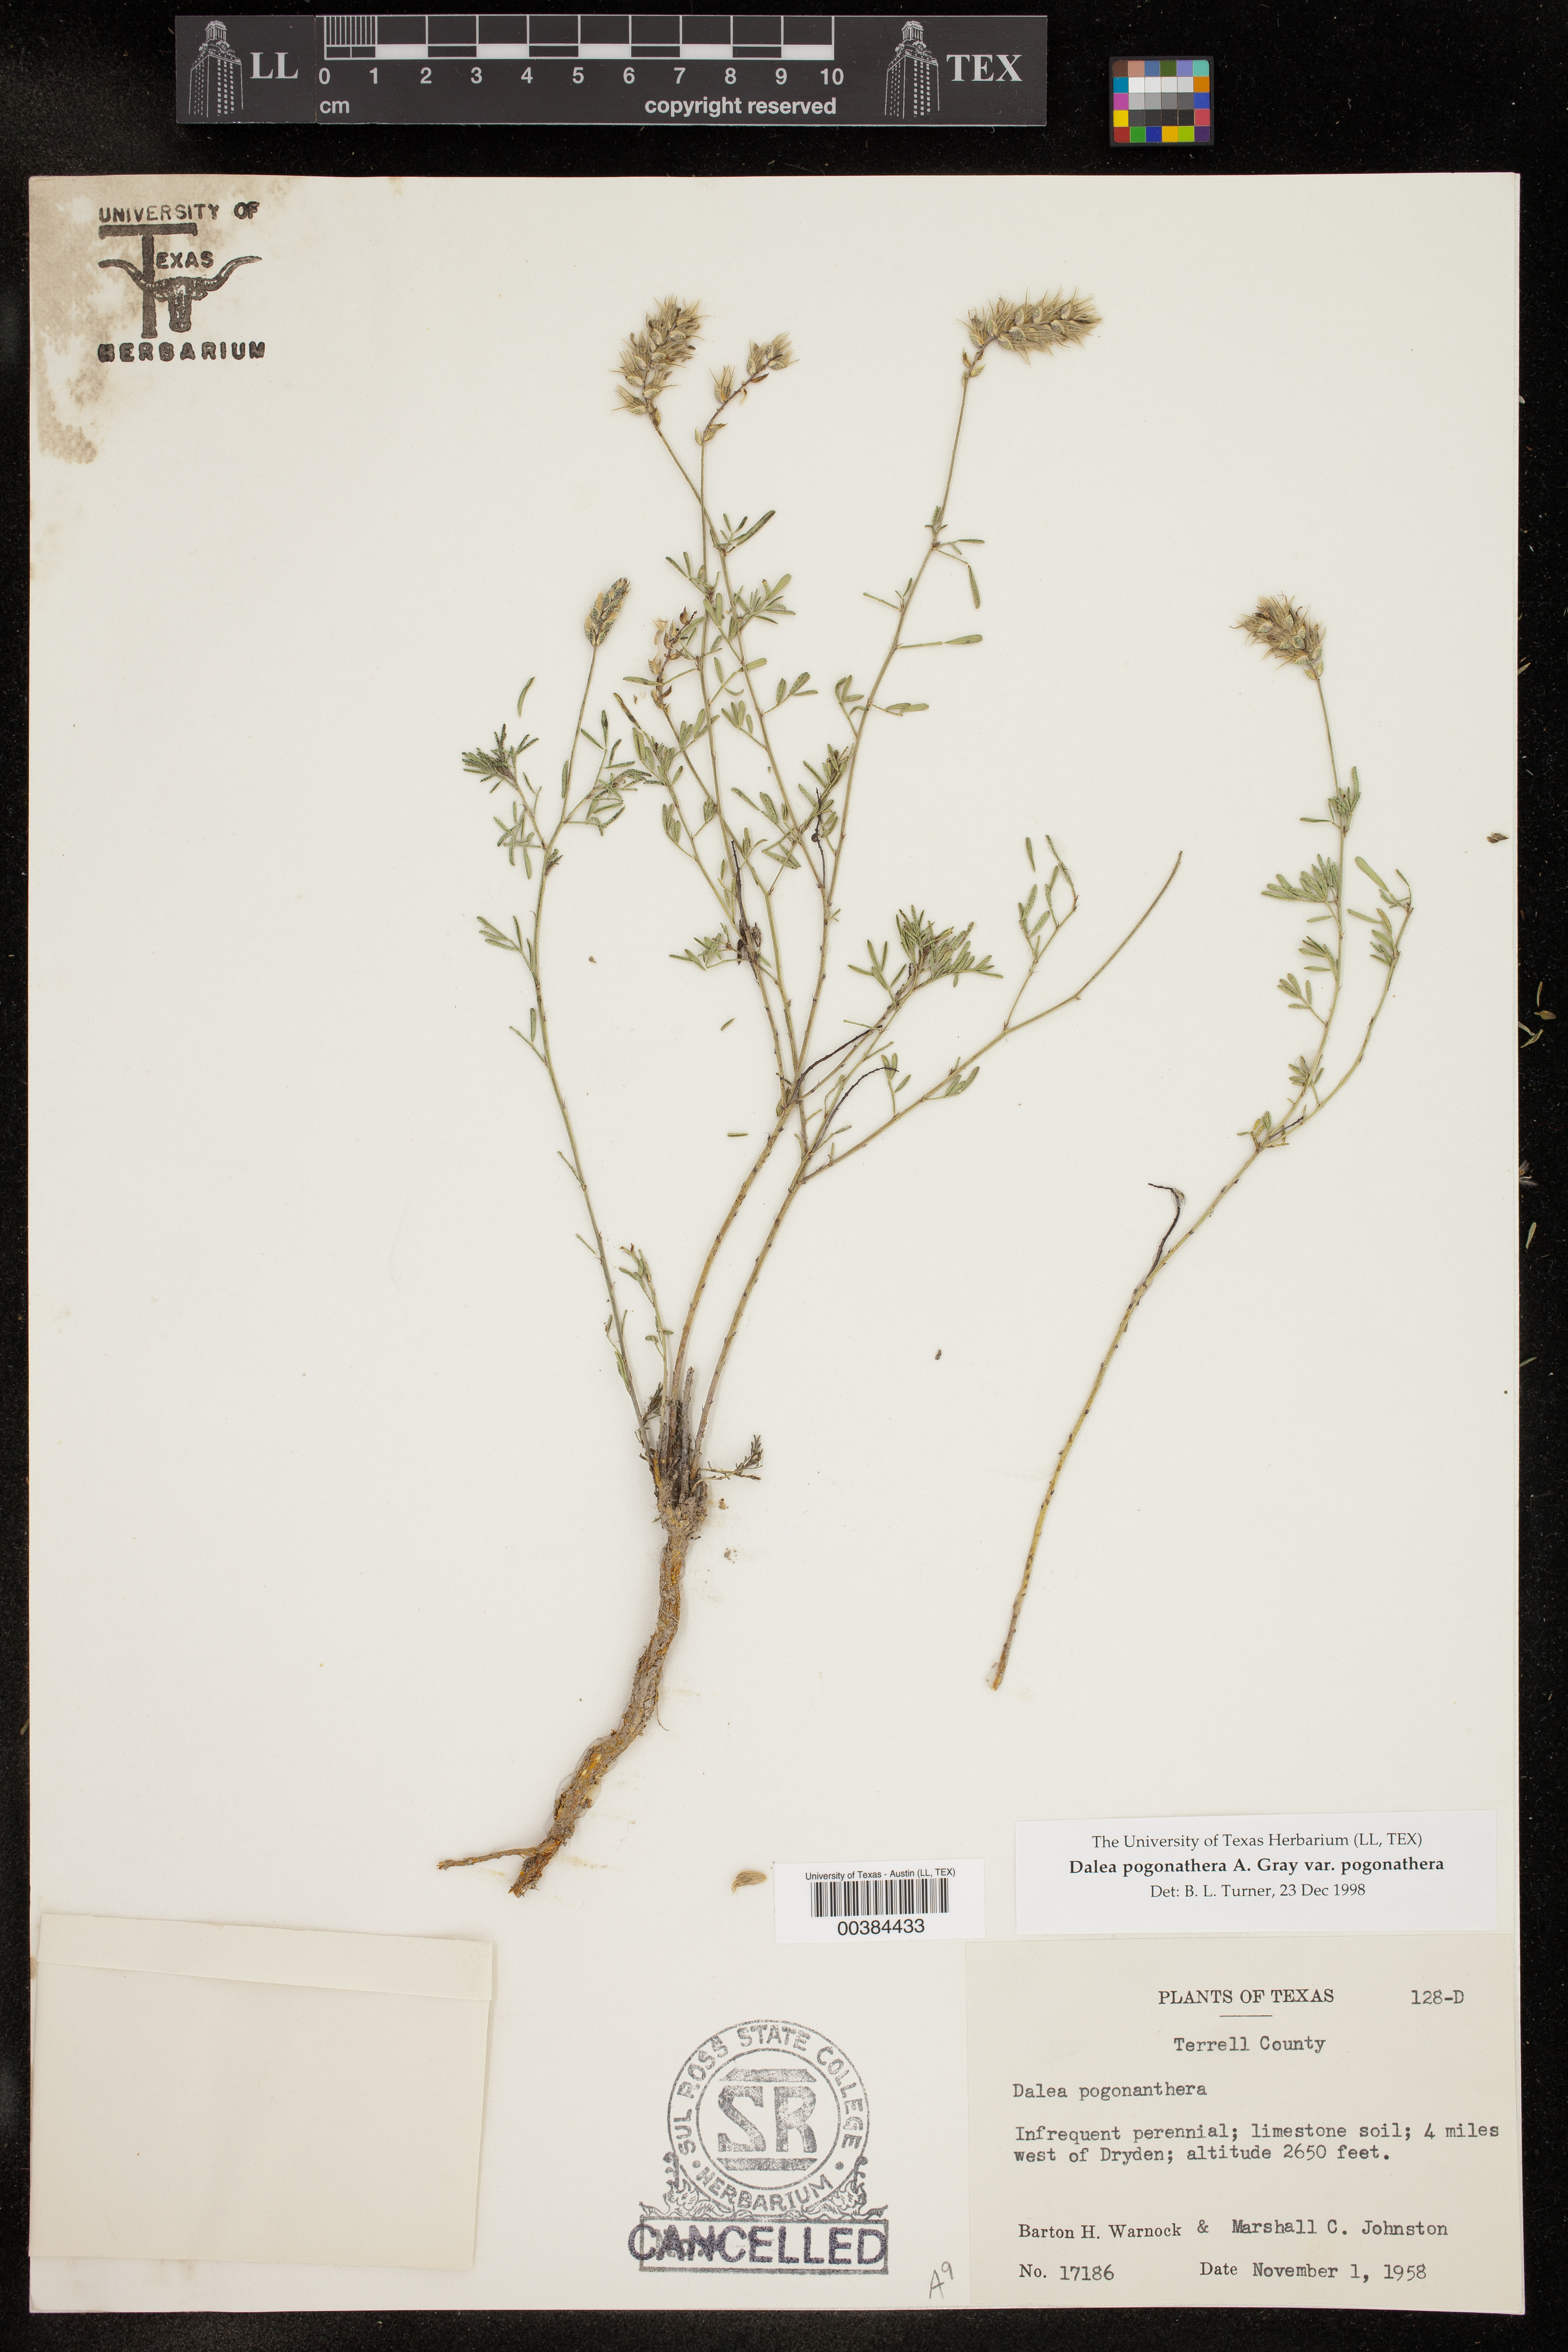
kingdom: Plantae
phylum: Tracheophyta
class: Magnoliopsida
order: Fabales
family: Fabaceae
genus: Dalea
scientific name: Dalea pogonathera
